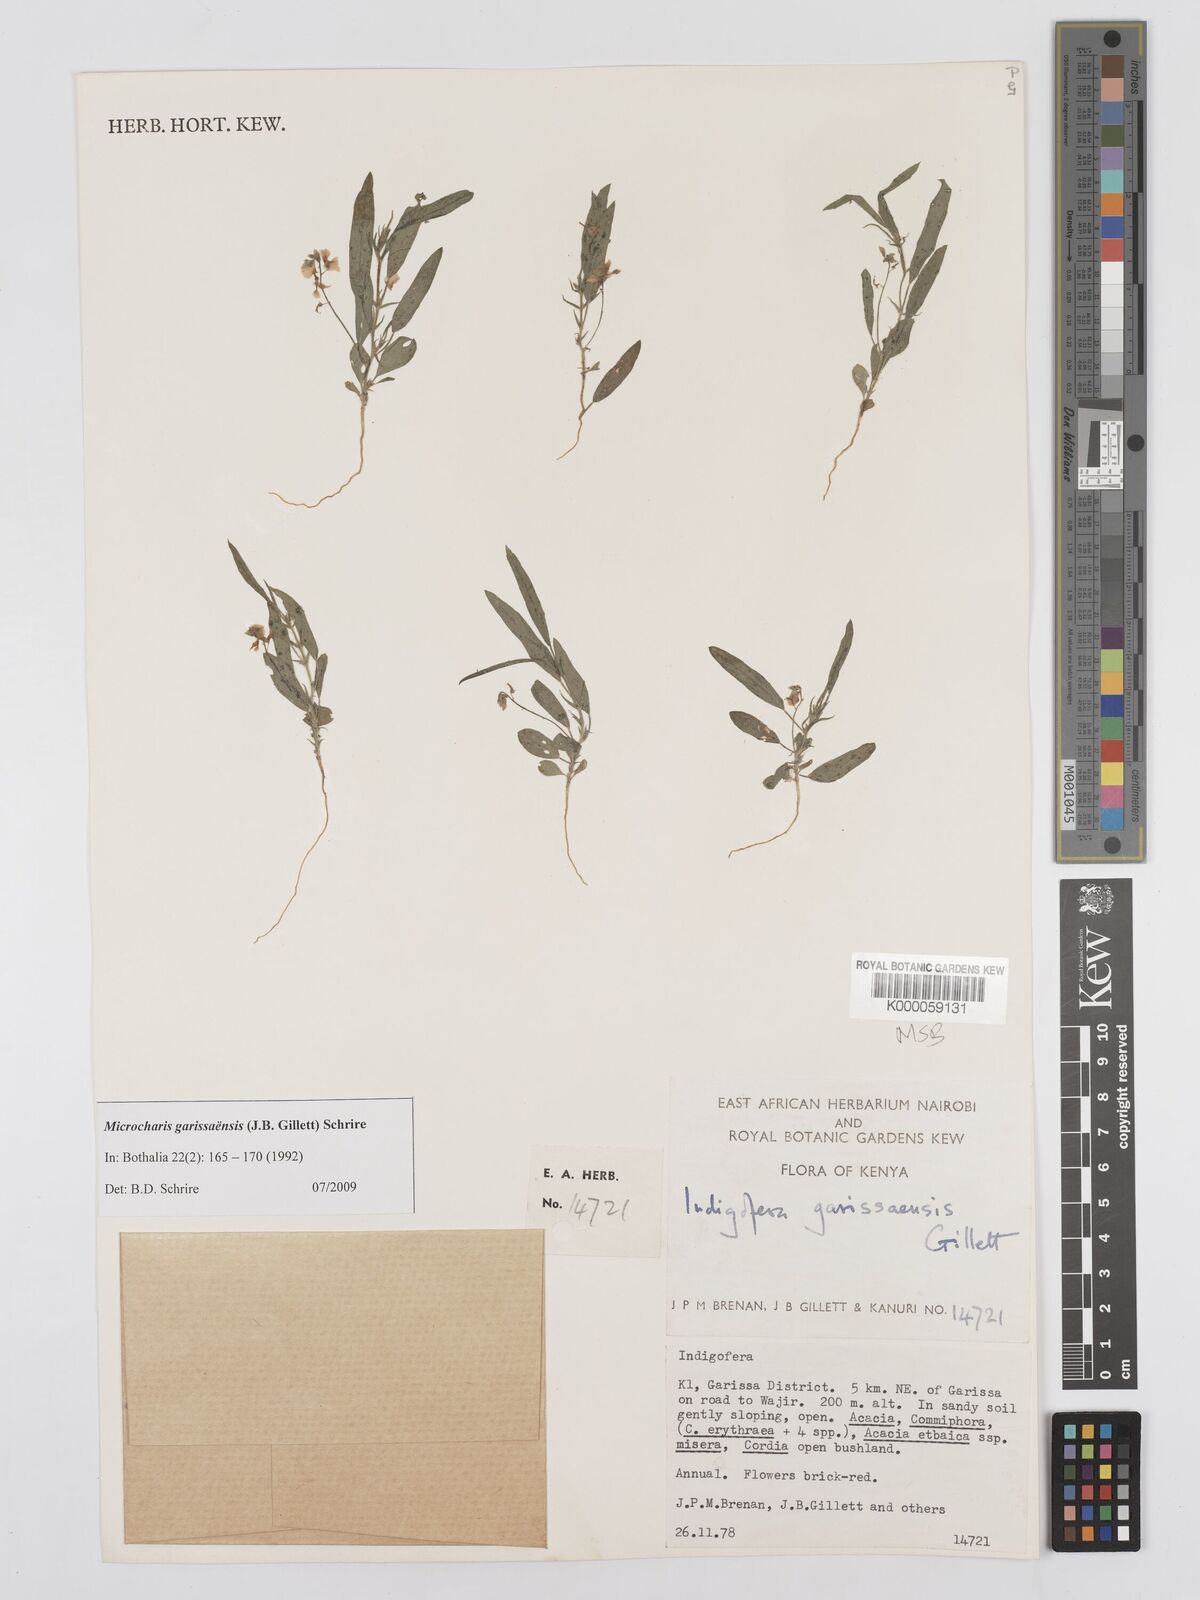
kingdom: Plantae
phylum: Tracheophyta
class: Magnoliopsida
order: Fabales
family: Fabaceae
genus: Microcharis
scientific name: Microcharis garissaensis
